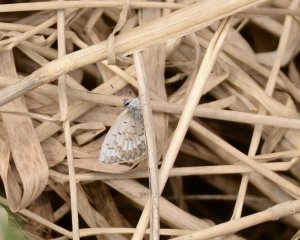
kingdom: Animalia
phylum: Arthropoda
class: Insecta
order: Lepidoptera
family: Lycaenidae
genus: Celastrina
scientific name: Celastrina lucia
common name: Northern Spring Azure
